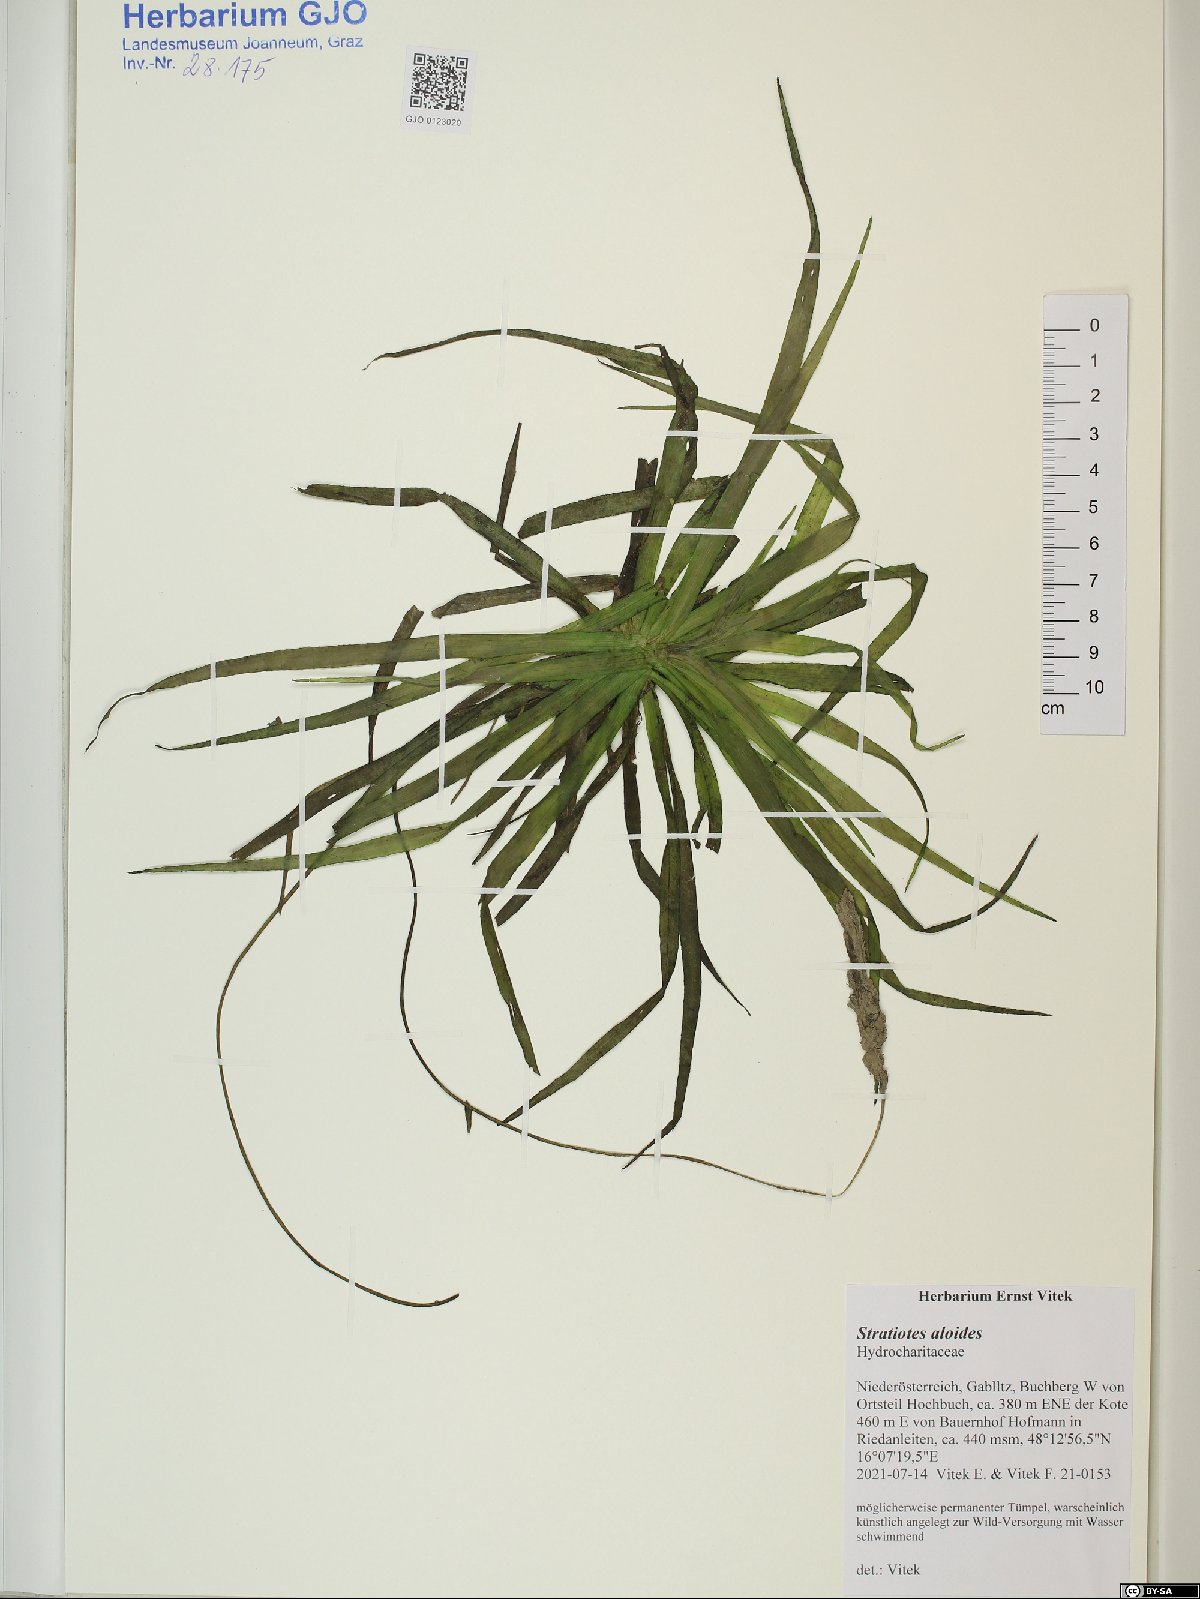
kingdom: Plantae
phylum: Tracheophyta
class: Liliopsida
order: Alismatales
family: Hydrocharitaceae
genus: Stratiotes
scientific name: Stratiotes aloides
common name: Water-soldier
